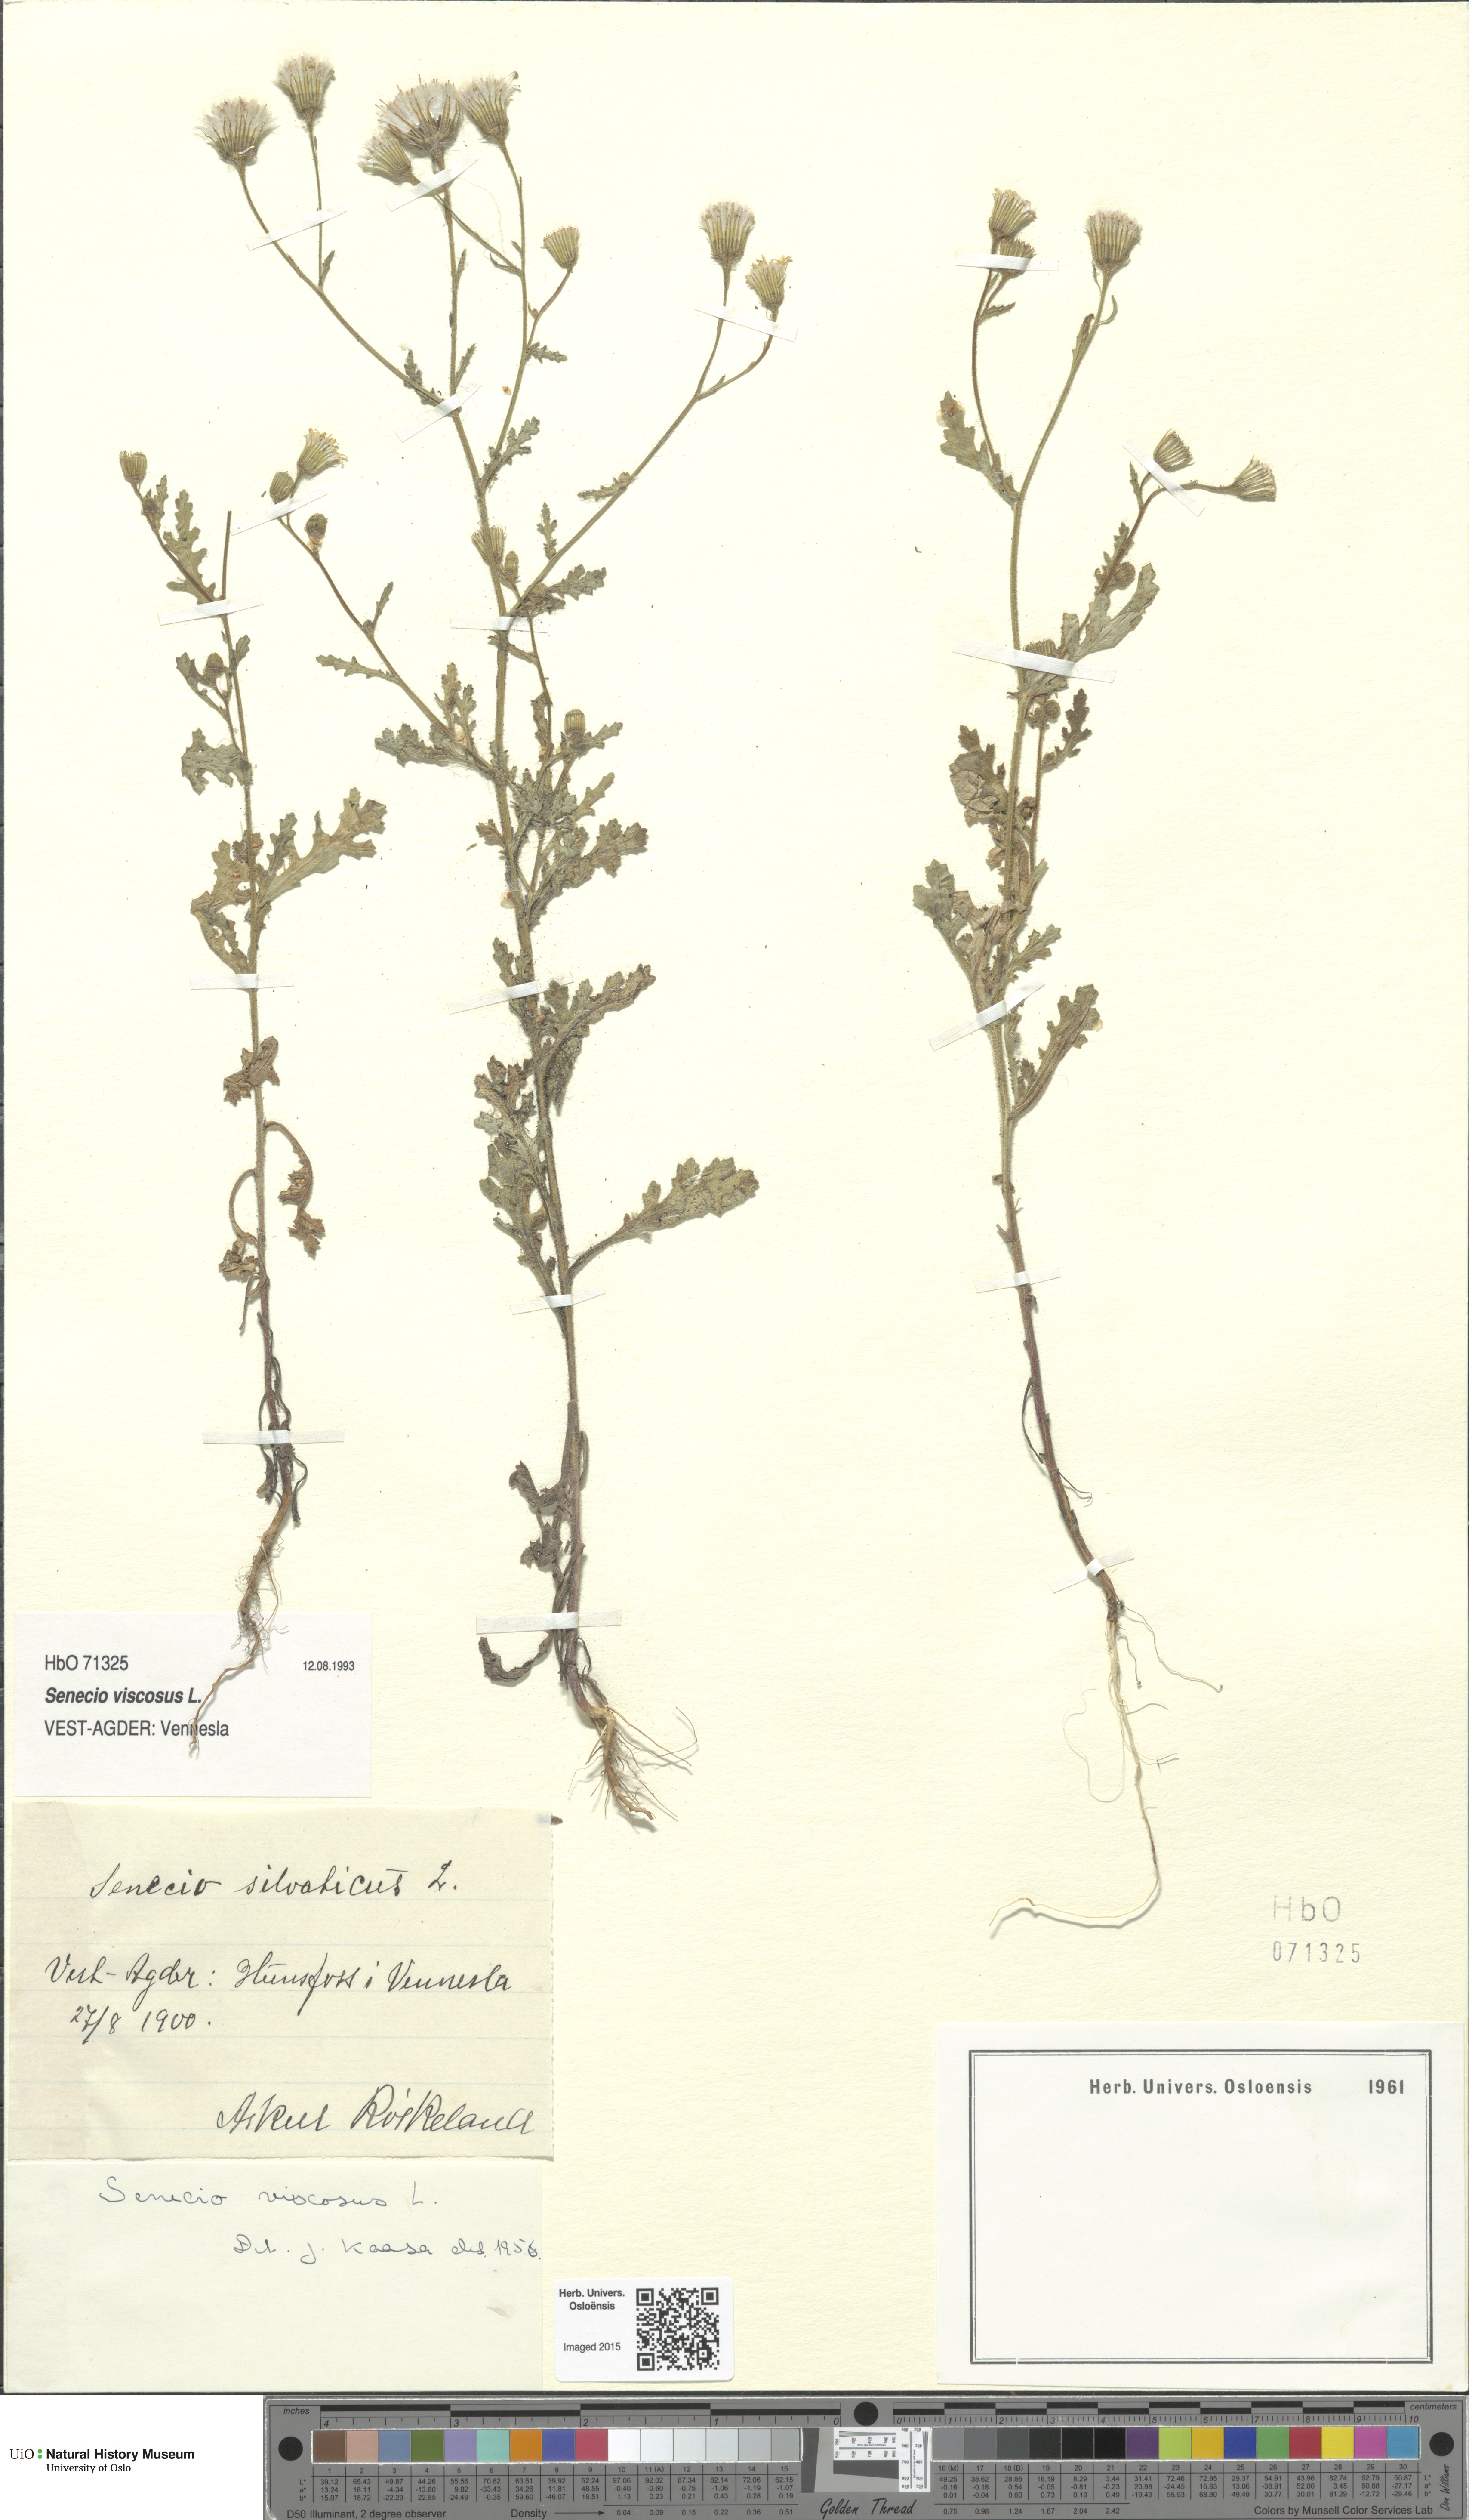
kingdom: Plantae
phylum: Tracheophyta
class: Magnoliopsida
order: Asterales
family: Asteraceae
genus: Senecio
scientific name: Senecio viscosus
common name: Sticky groundsel
